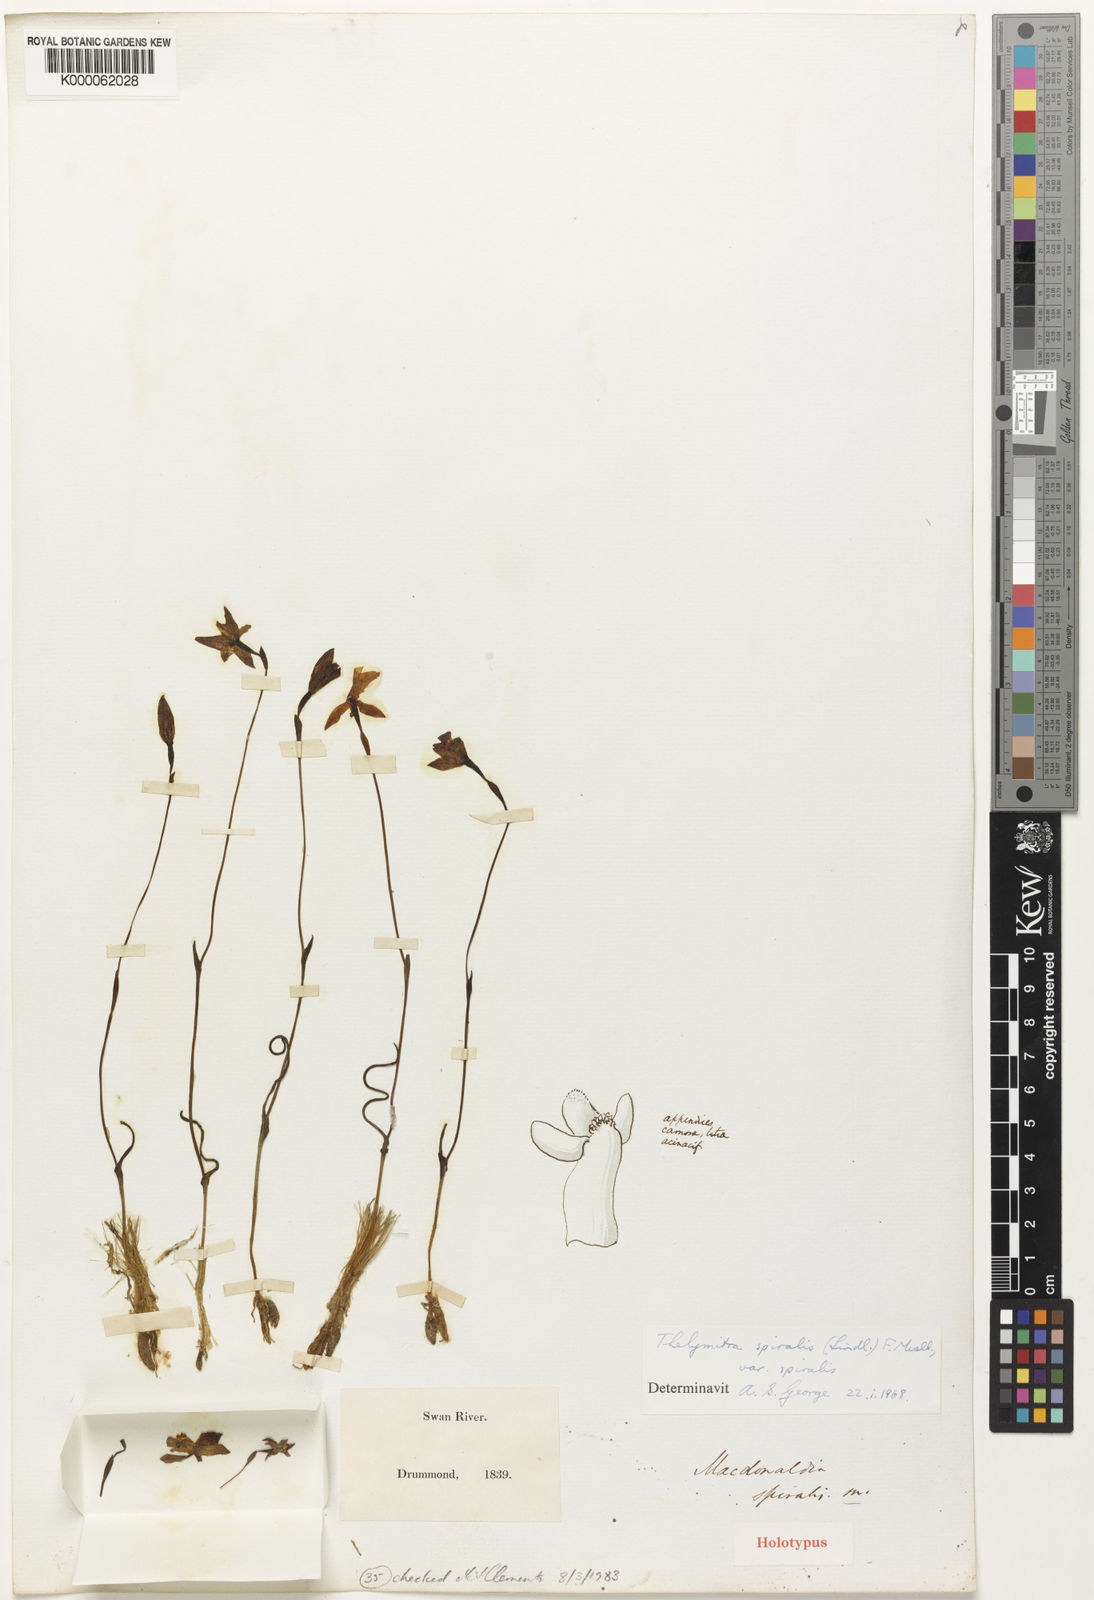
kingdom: Plantae
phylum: Tracheophyta
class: Liliopsida
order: Asparagales
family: Orchidaceae
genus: Thelymitra
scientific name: Thelymitra
